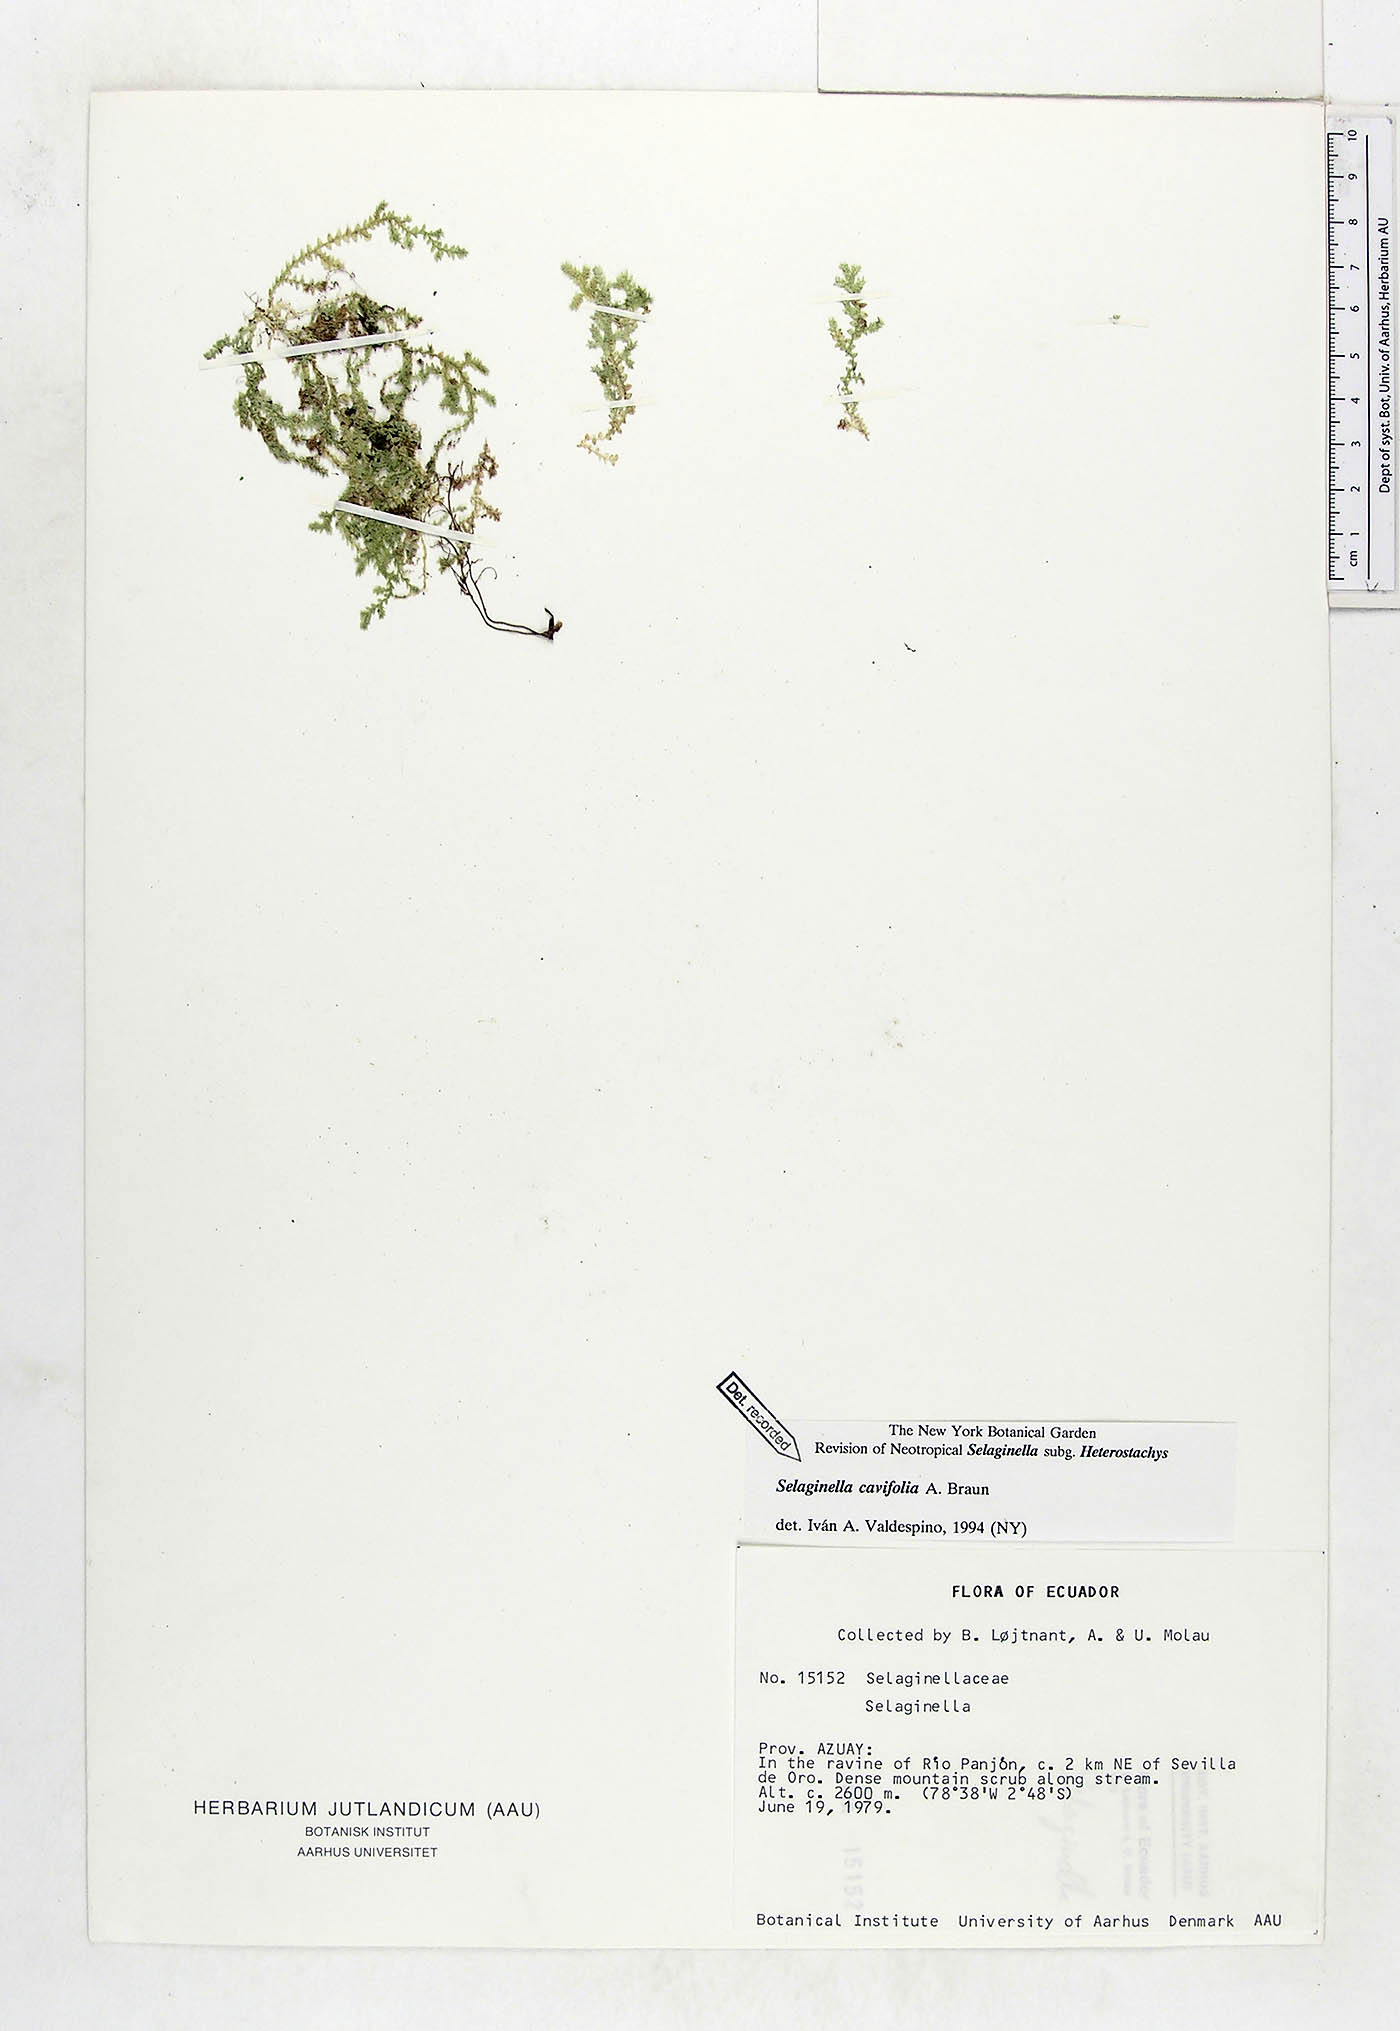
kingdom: Plantae
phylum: Tracheophyta
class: Lycopodiopsida
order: Selaginellales
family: Selaginellaceae
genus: Selaginella
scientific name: Selaginella cavifolia
